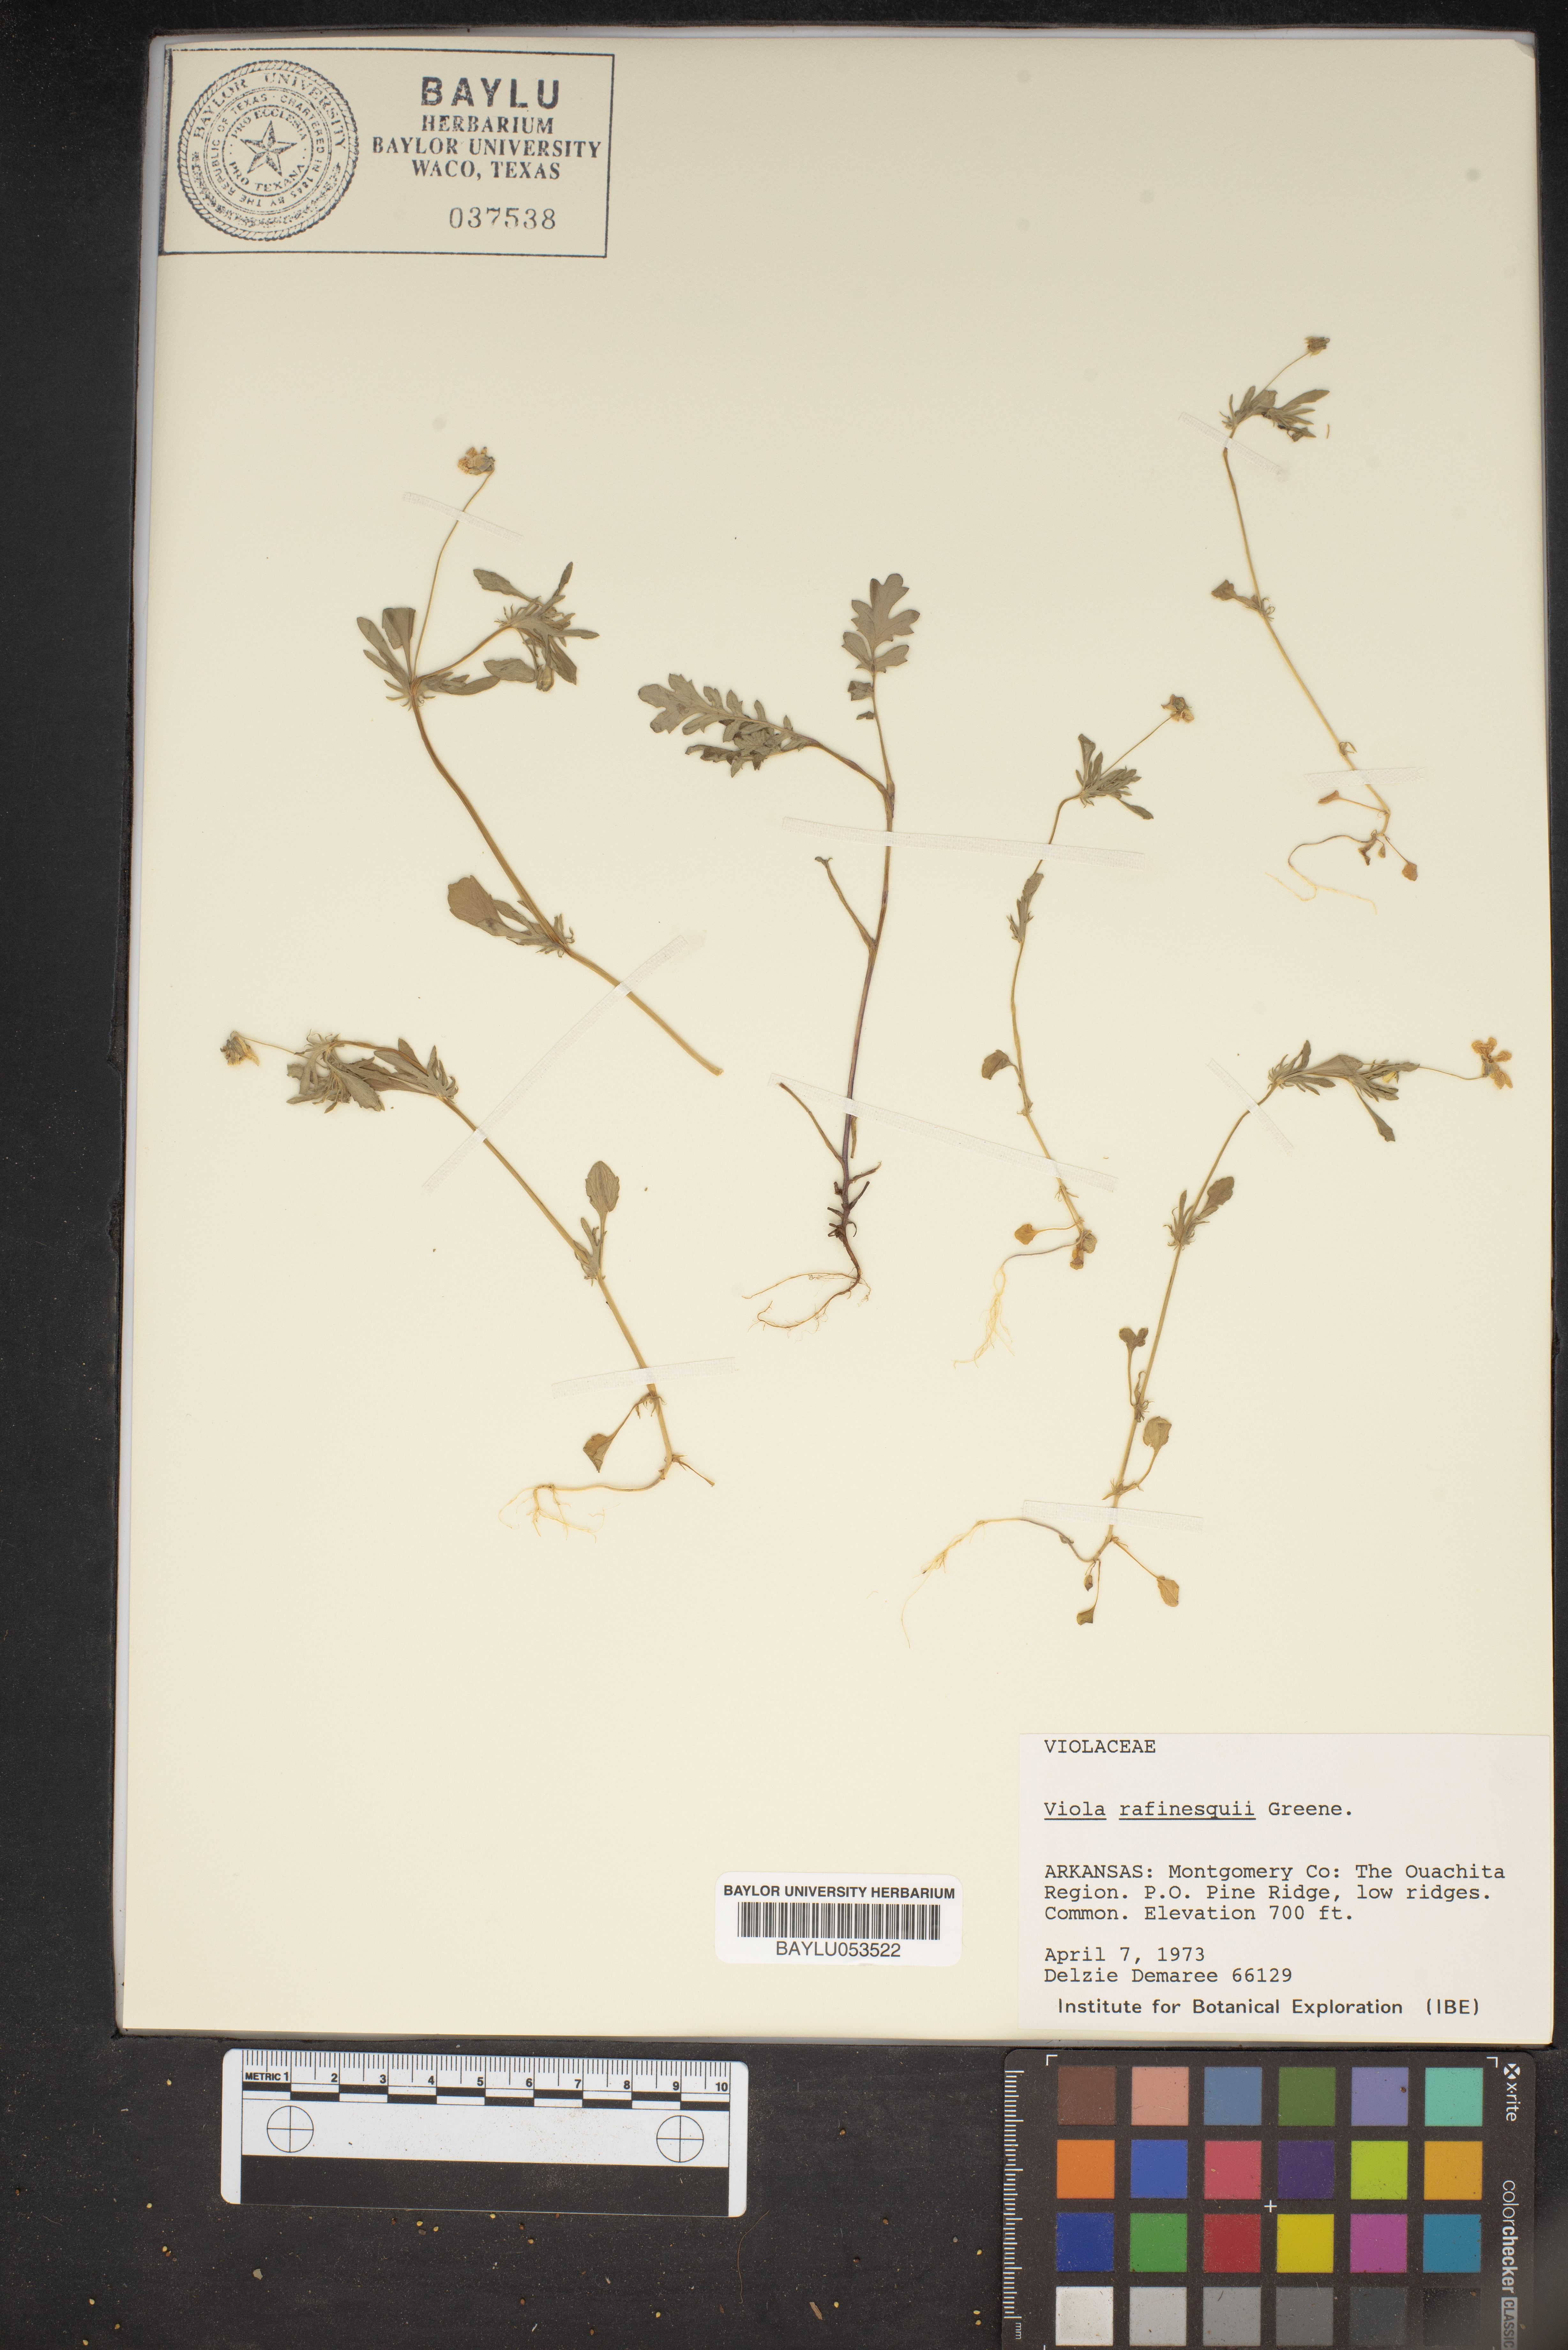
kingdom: Plantae
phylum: Tracheophyta
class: Magnoliopsida
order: Malpighiales
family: Violaceae
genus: Viola
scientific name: Viola rafinesquei
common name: American field pansy
